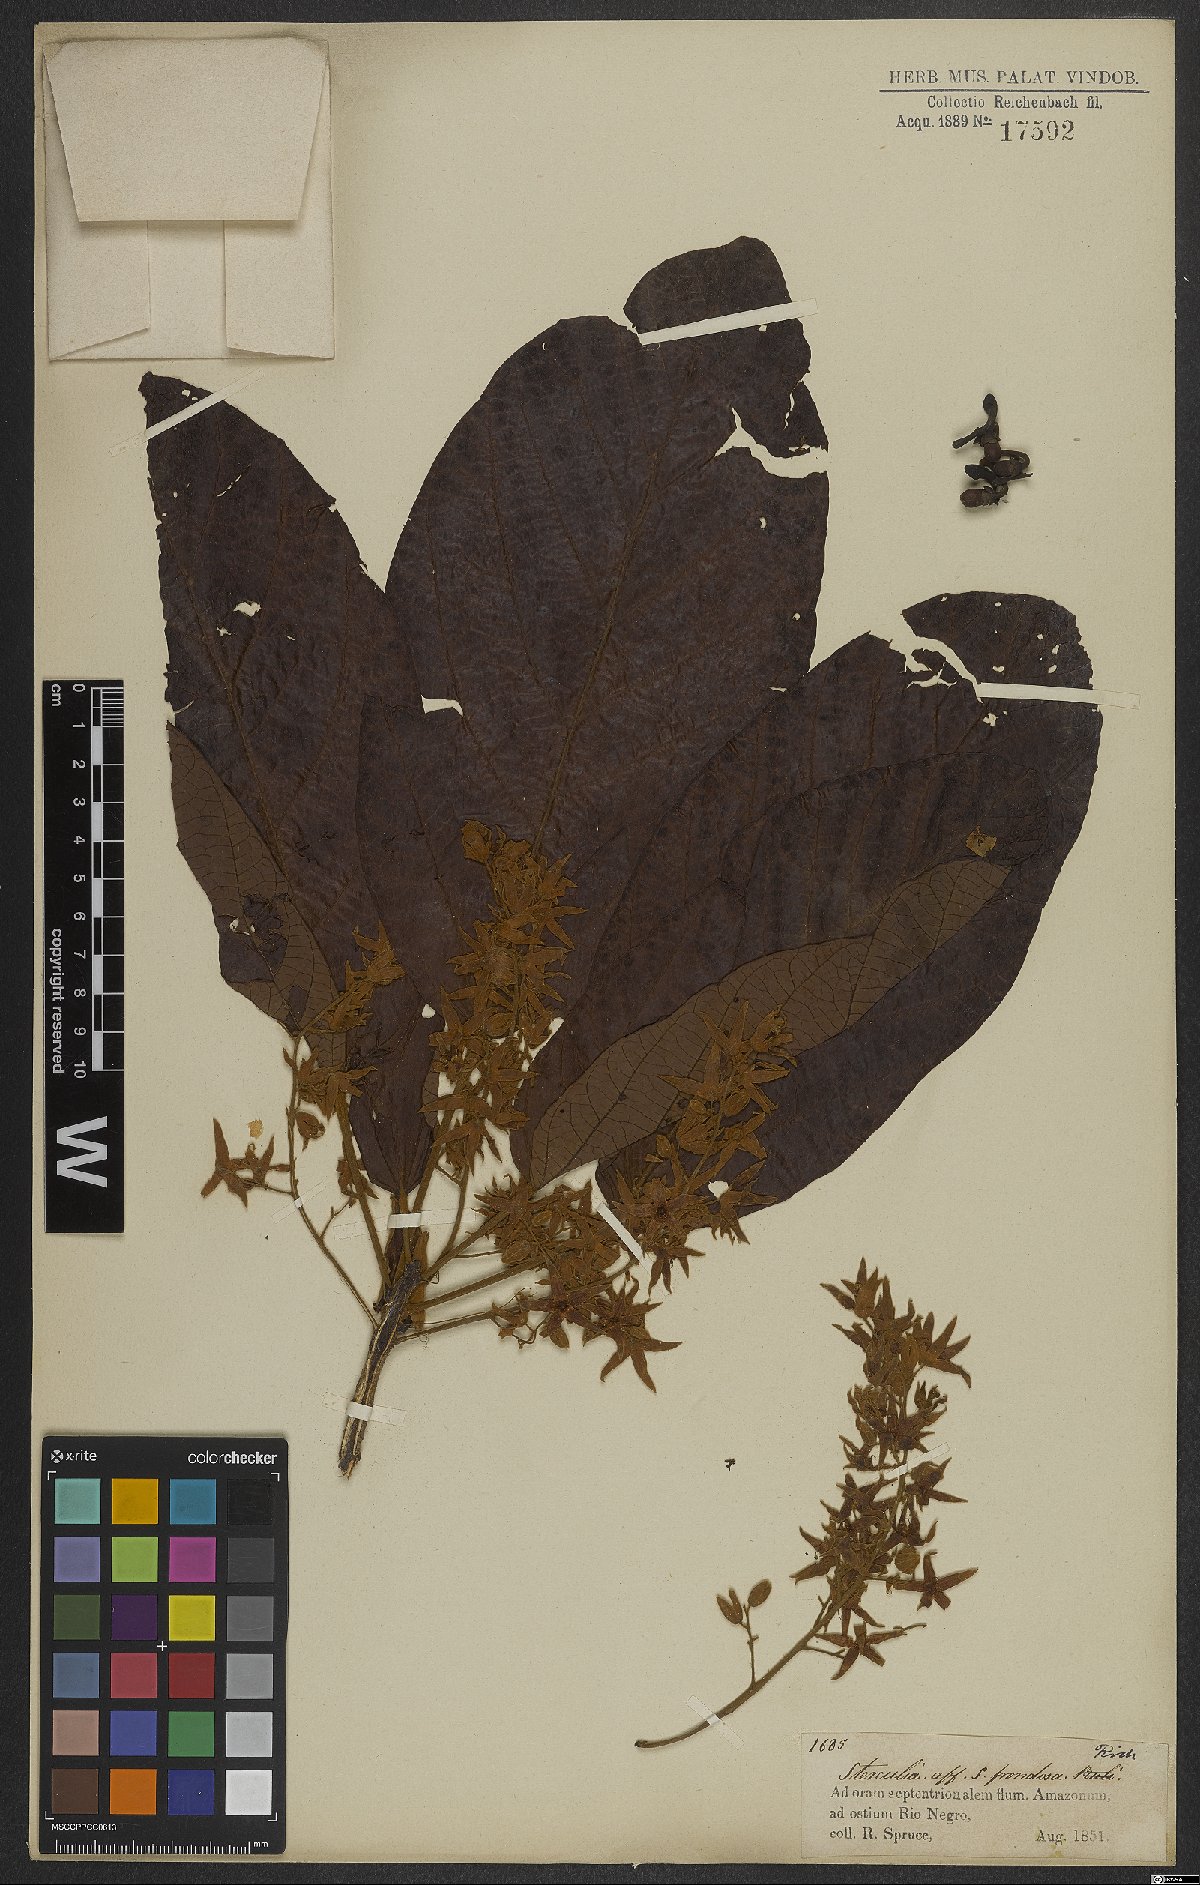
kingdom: Plantae
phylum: Tracheophyta
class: Magnoliopsida
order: Malvales
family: Malvaceae
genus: Sterculia
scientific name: Sterculia frondosa
